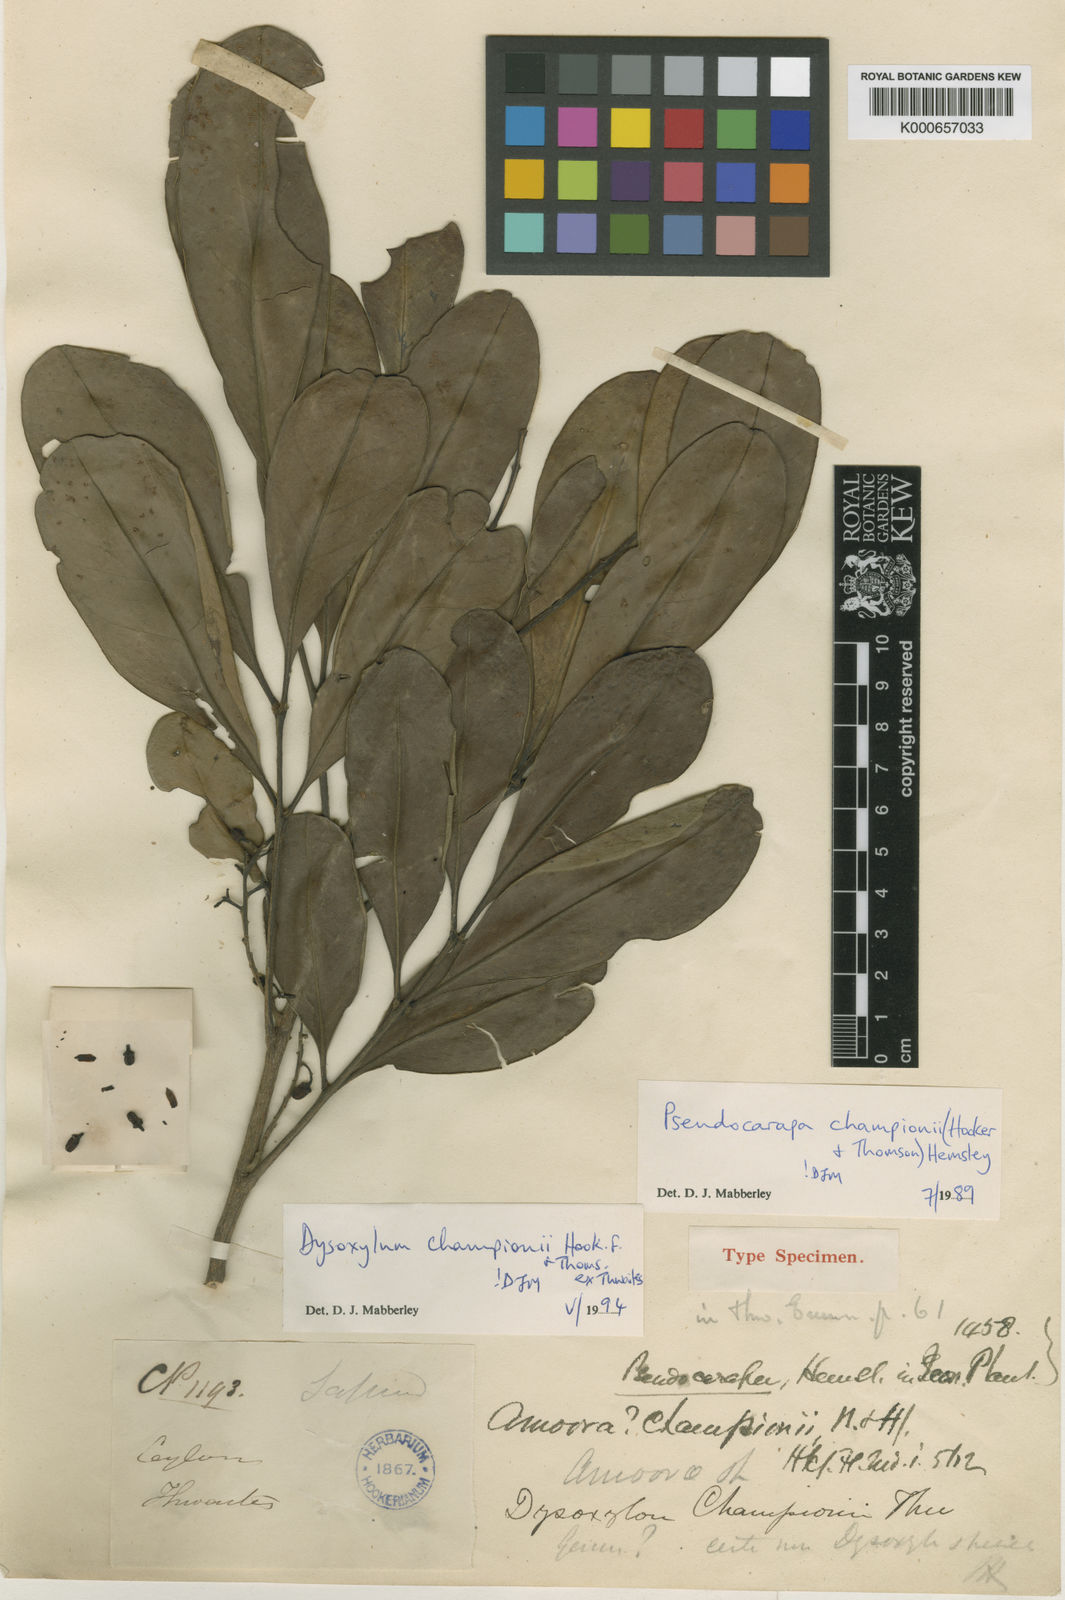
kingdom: Plantae
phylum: Tracheophyta
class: Magnoliopsida
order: Sapindales
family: Meliaceae
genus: Pseudocarapa
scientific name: Pseudocarapa championii
